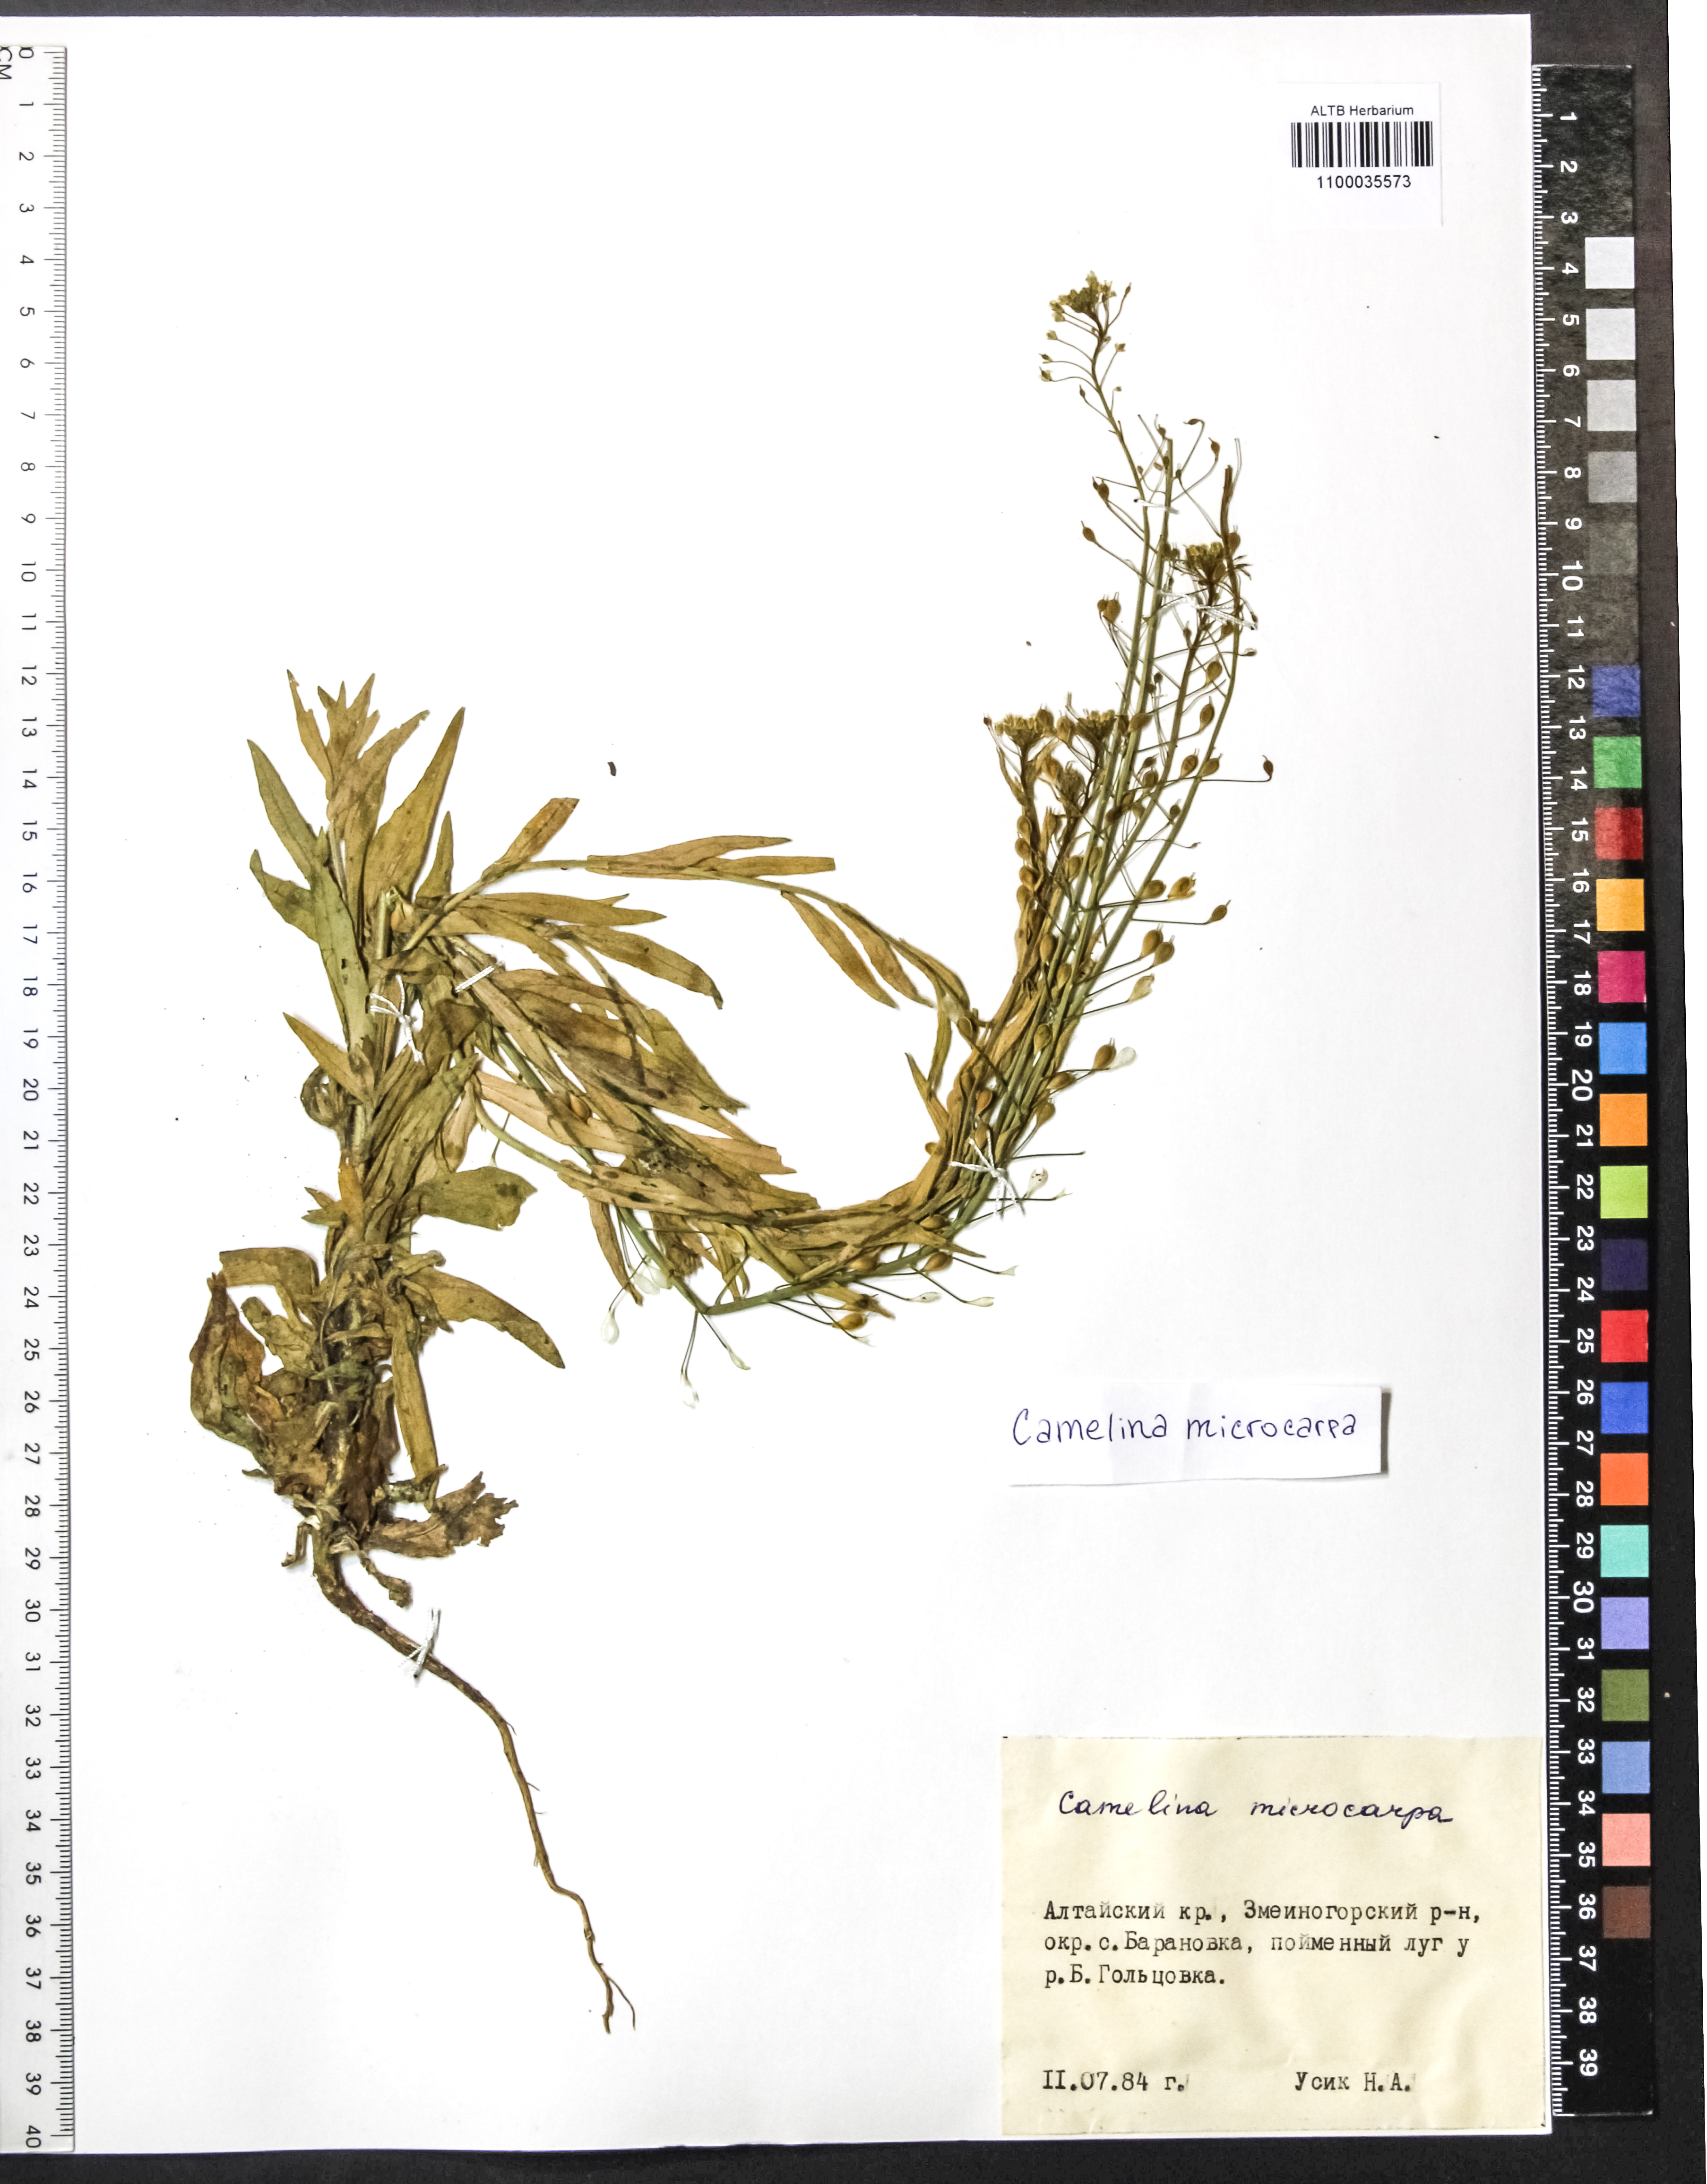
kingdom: Plantae
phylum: Tracheophyta
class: Magnoliopsida
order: Brassicales
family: Brassicaceae
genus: Camelina
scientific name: Camelina microcarpa
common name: Lesser gold-of-pleasure
